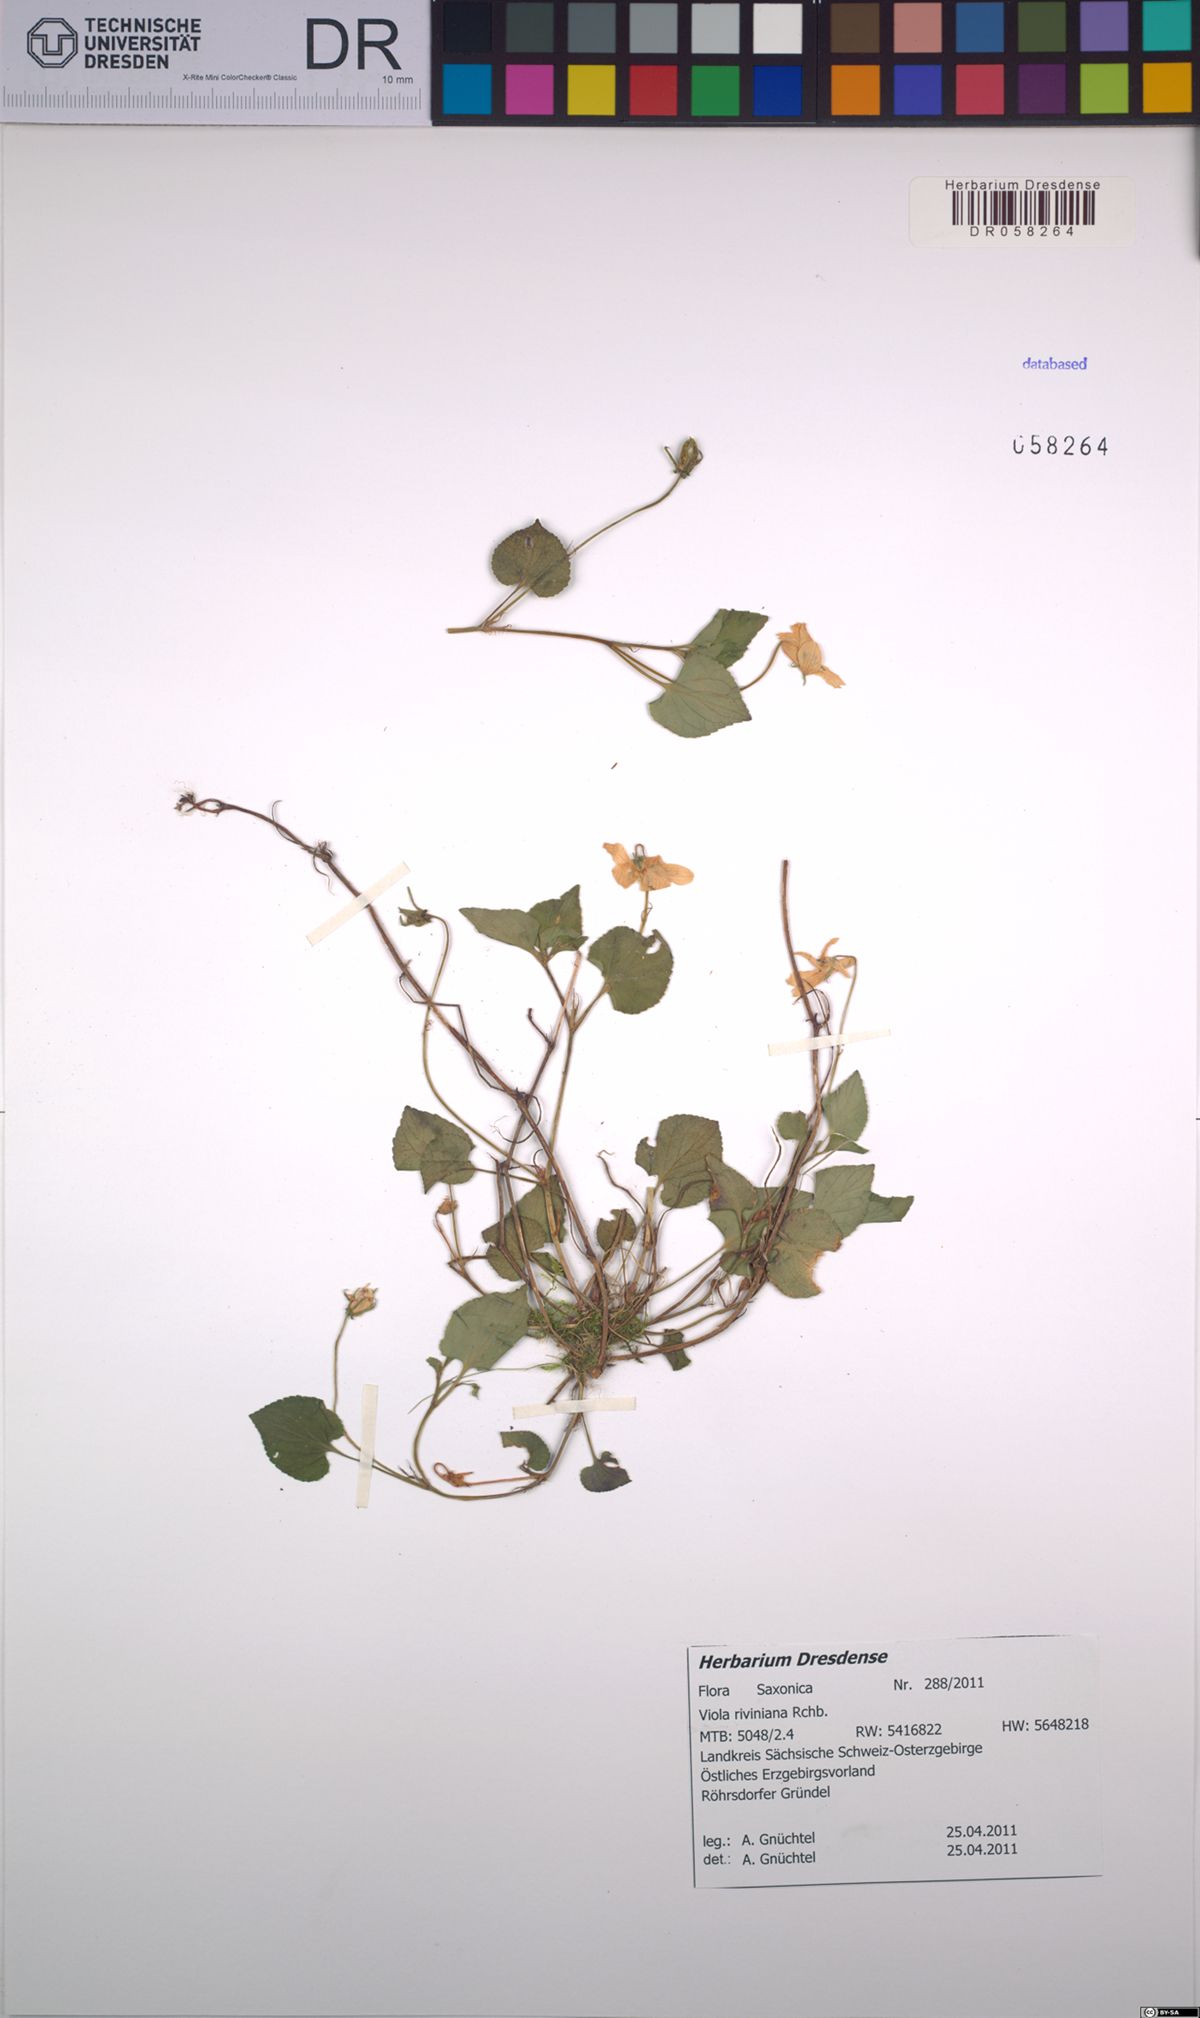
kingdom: Plantae
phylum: Tracheophyta
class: Magnoliopsida
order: Malpighiales
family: Violaceae
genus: Viola
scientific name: Viola riviniana
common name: Common dog-violet
